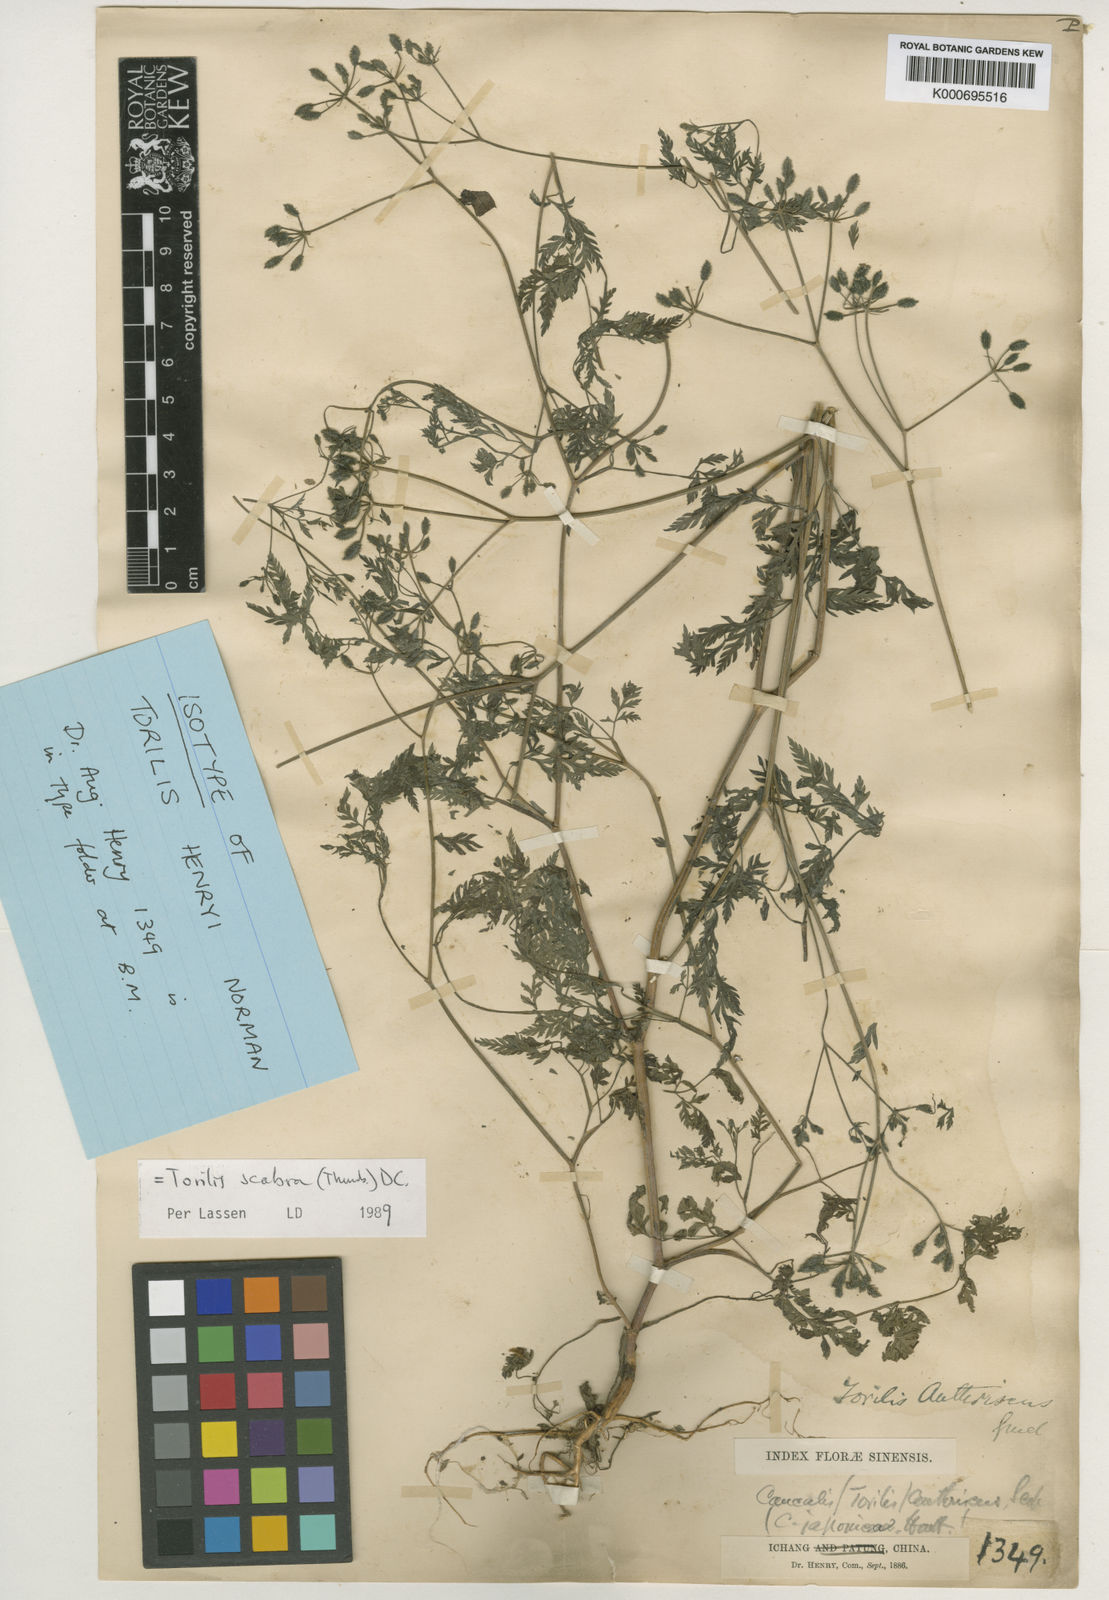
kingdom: Plantae
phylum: Tracheophyta
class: Magnoliopsida
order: Apiales
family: Apiaceae
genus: Torilis
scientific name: Torilis scabra
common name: Rough hedgeparsley
